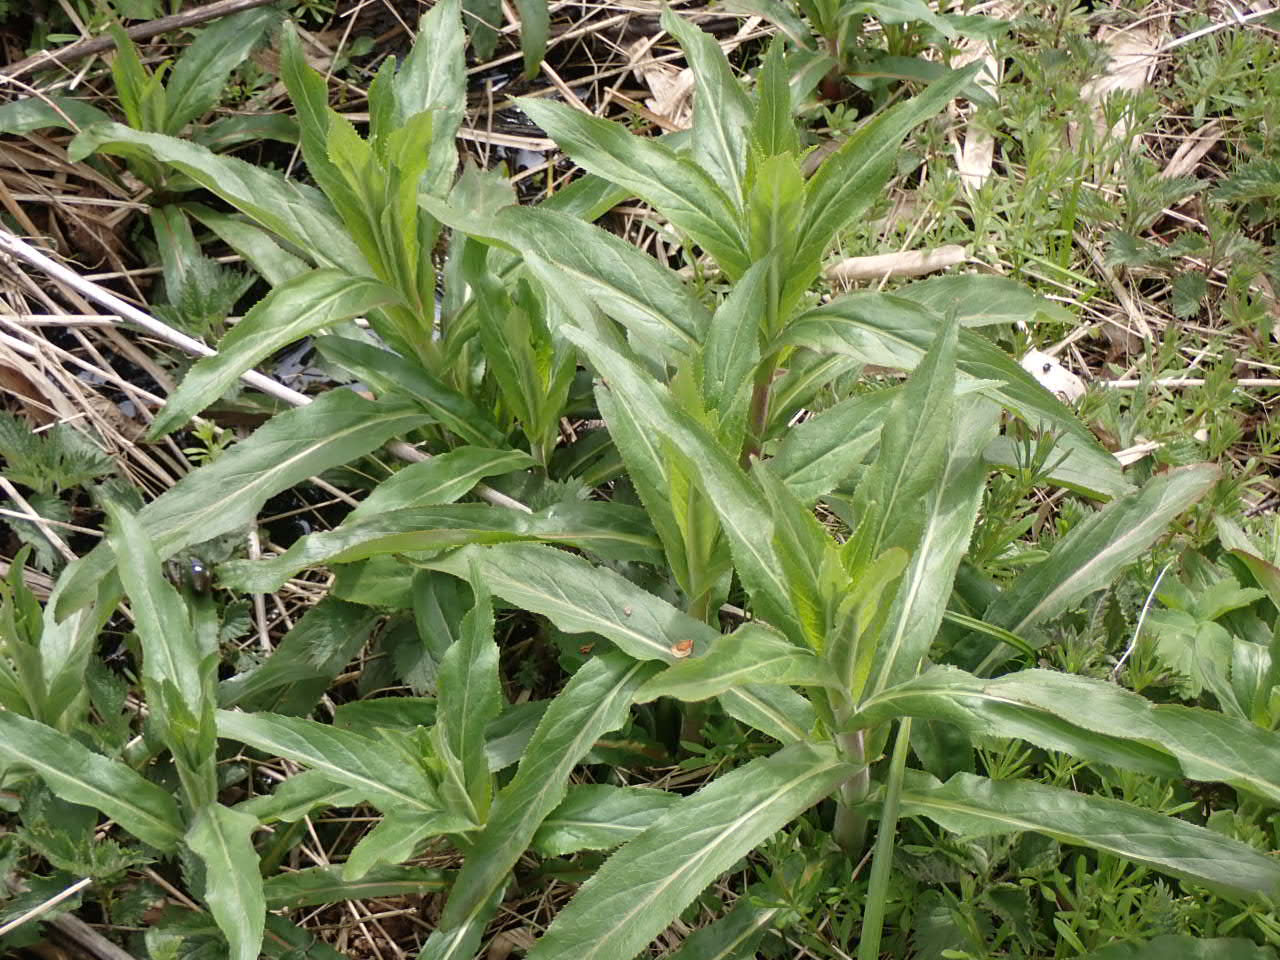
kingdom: Plantae
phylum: Tracheophyta
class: Magnoliopsida
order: Myrtales
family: Onagraceae
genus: Epilobium
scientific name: Epilobium hirsutum
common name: Lådden dueurt
